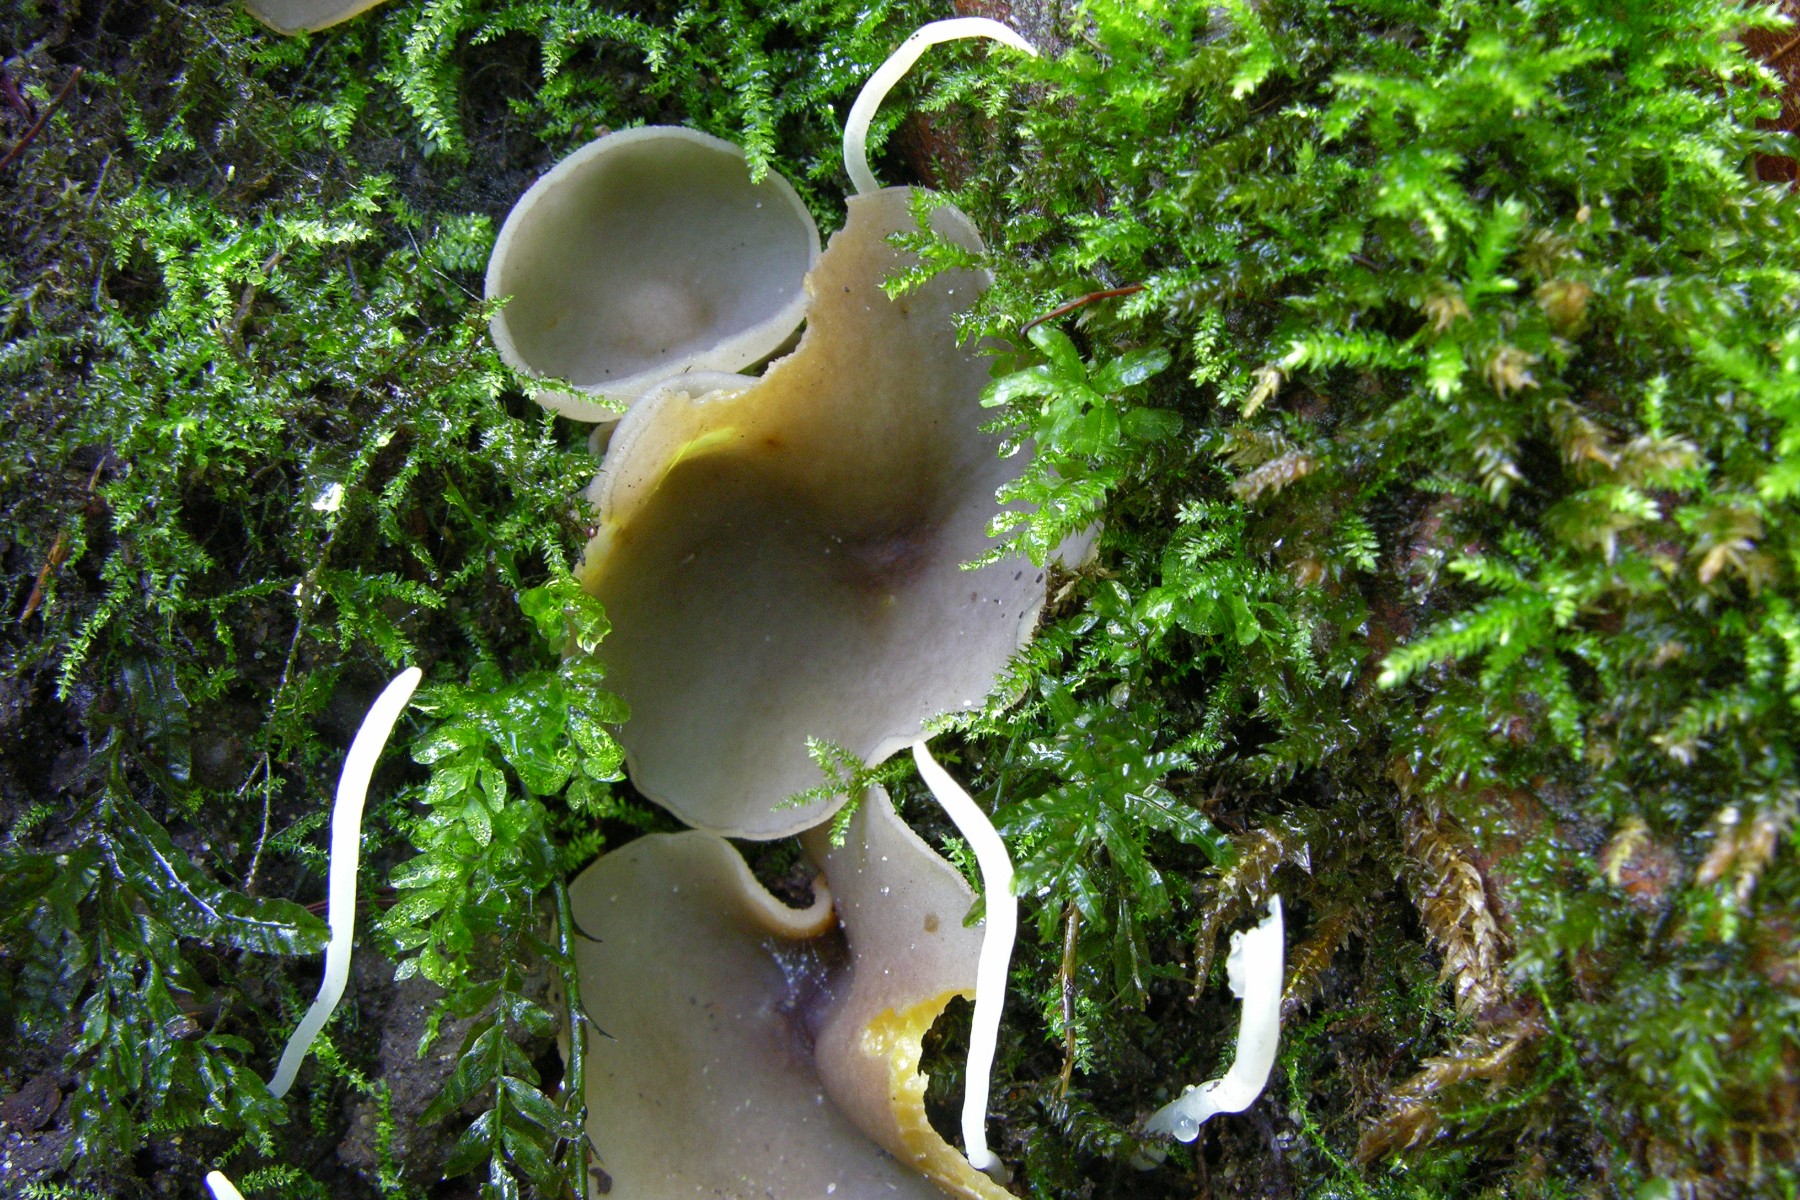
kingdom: Fungi
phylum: Ascomycota
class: Pezizomycetes
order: Pezizales
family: Pezizaceae
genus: Peziza
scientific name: Peziza
